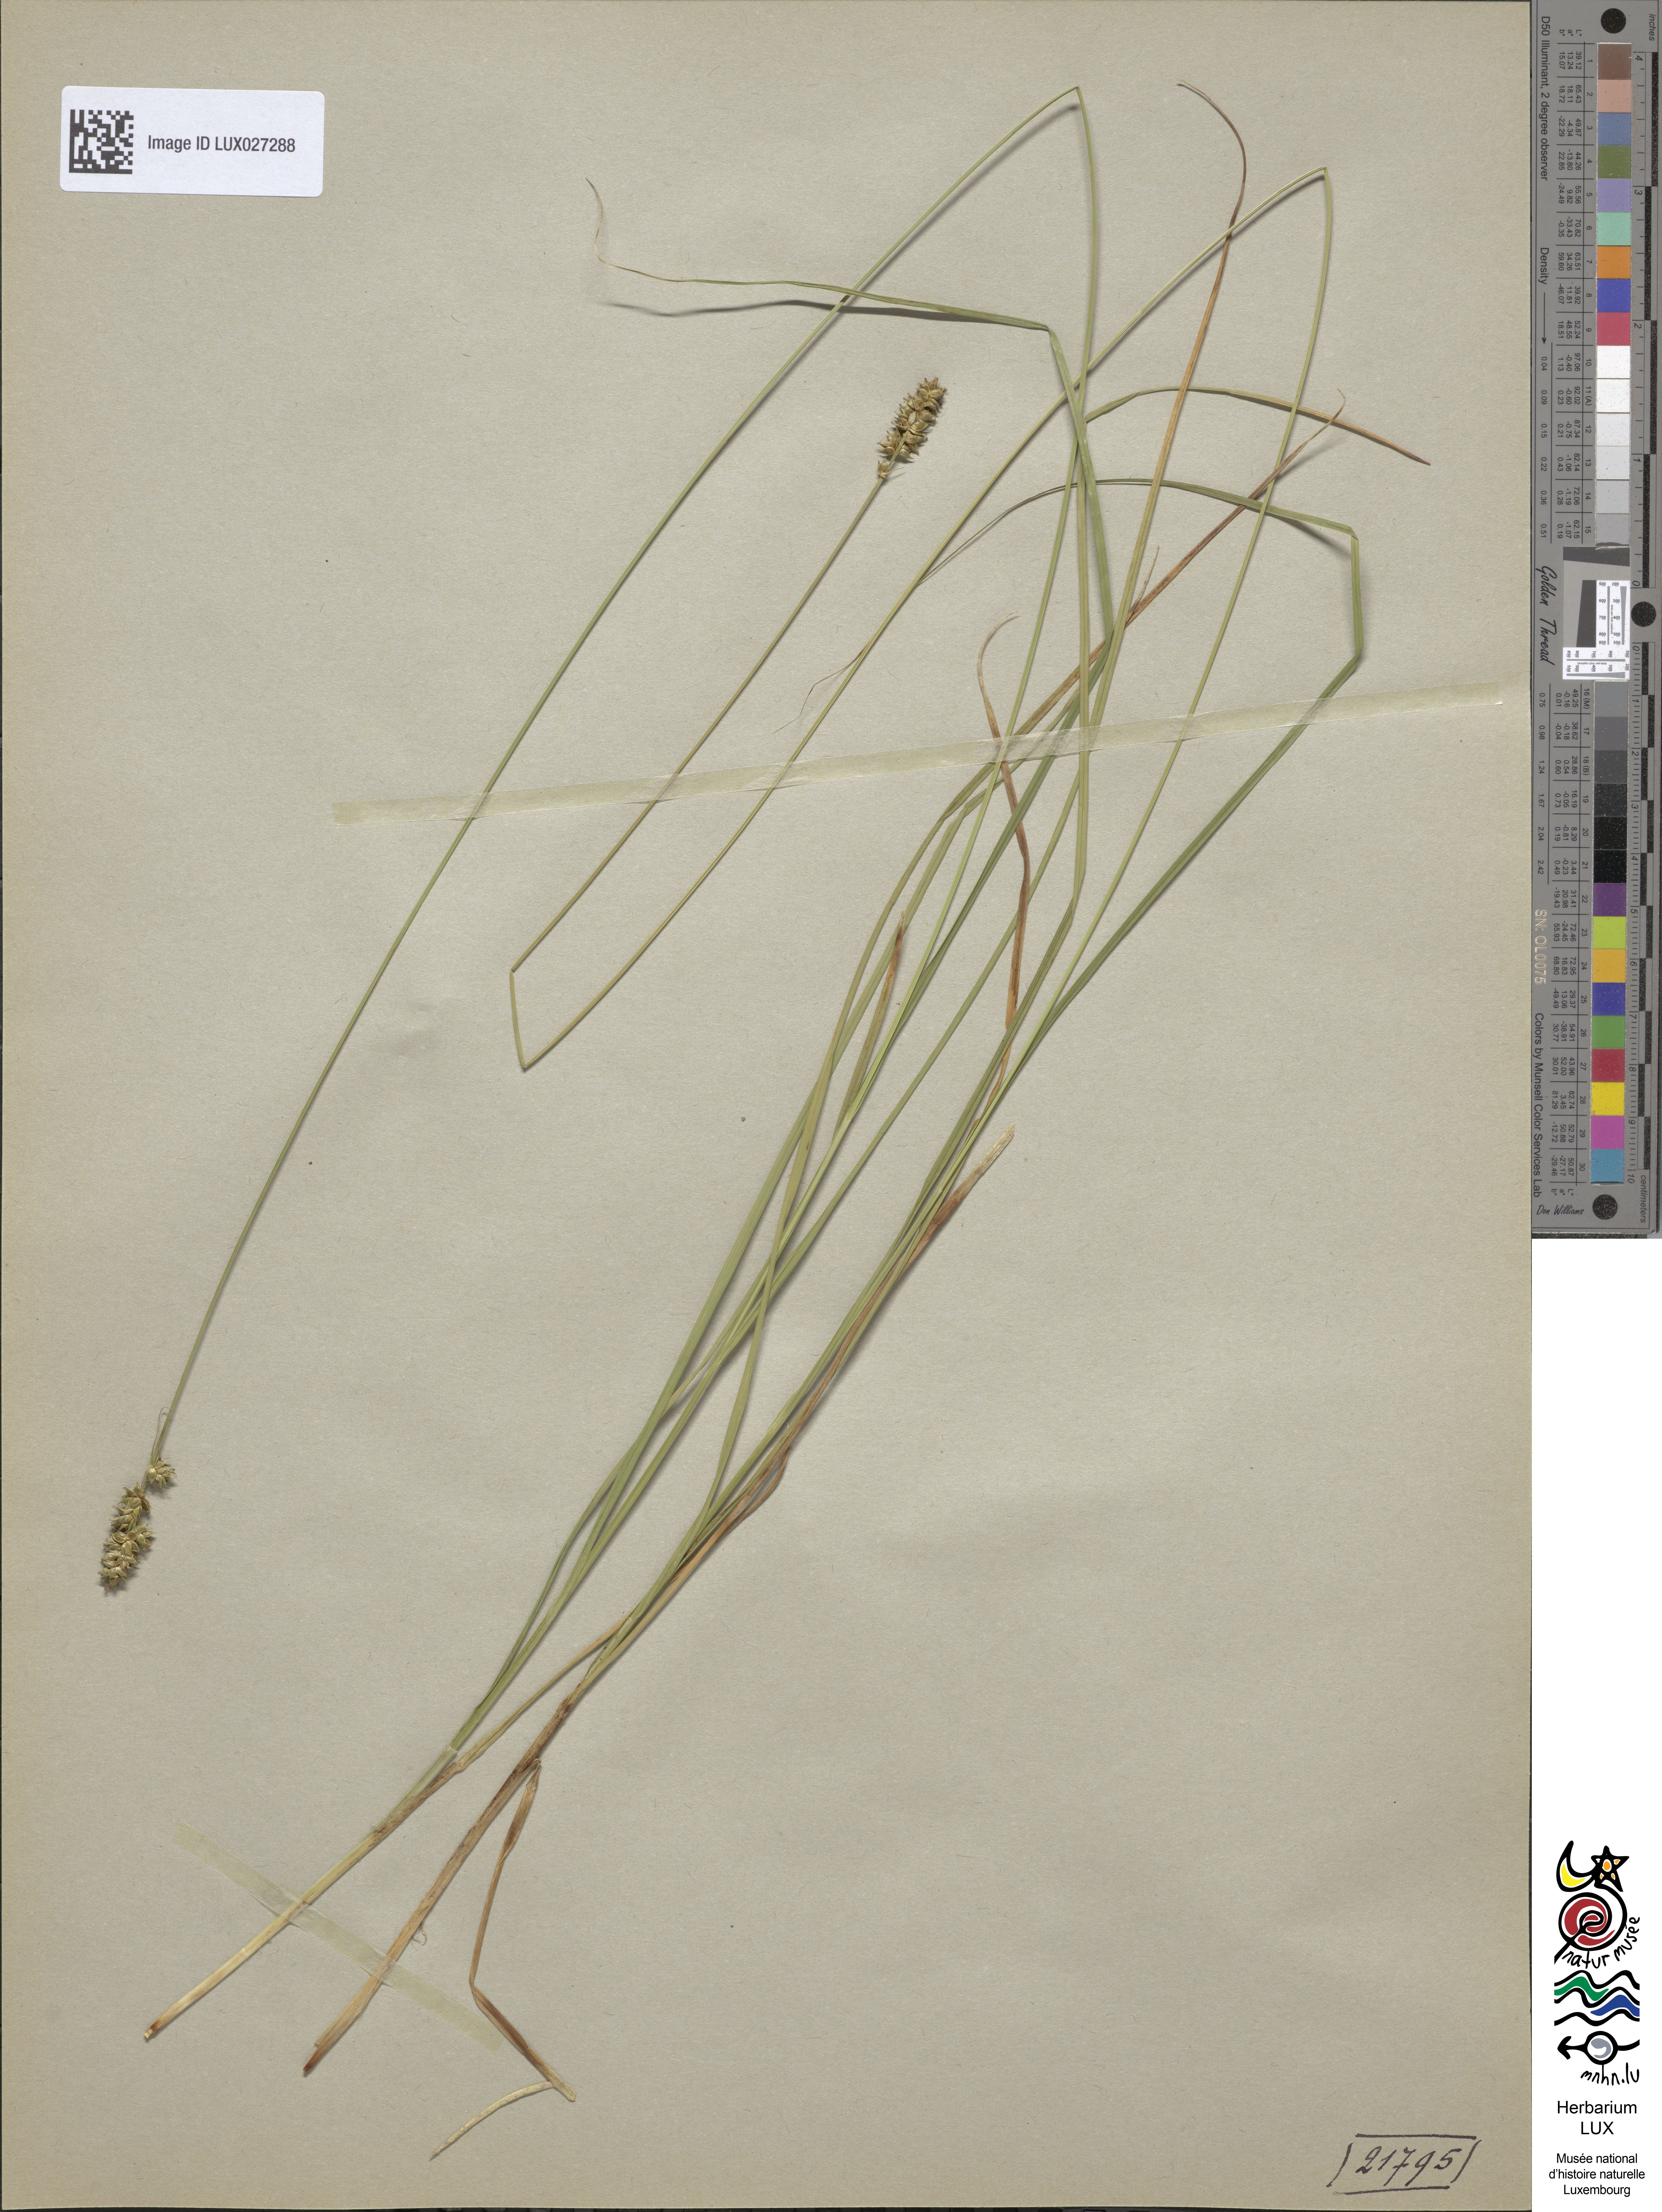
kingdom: Plantae
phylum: Tracheophyta
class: Liliopsida
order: Poales
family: Cyperaceae
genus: Carex
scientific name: Carex pairae
